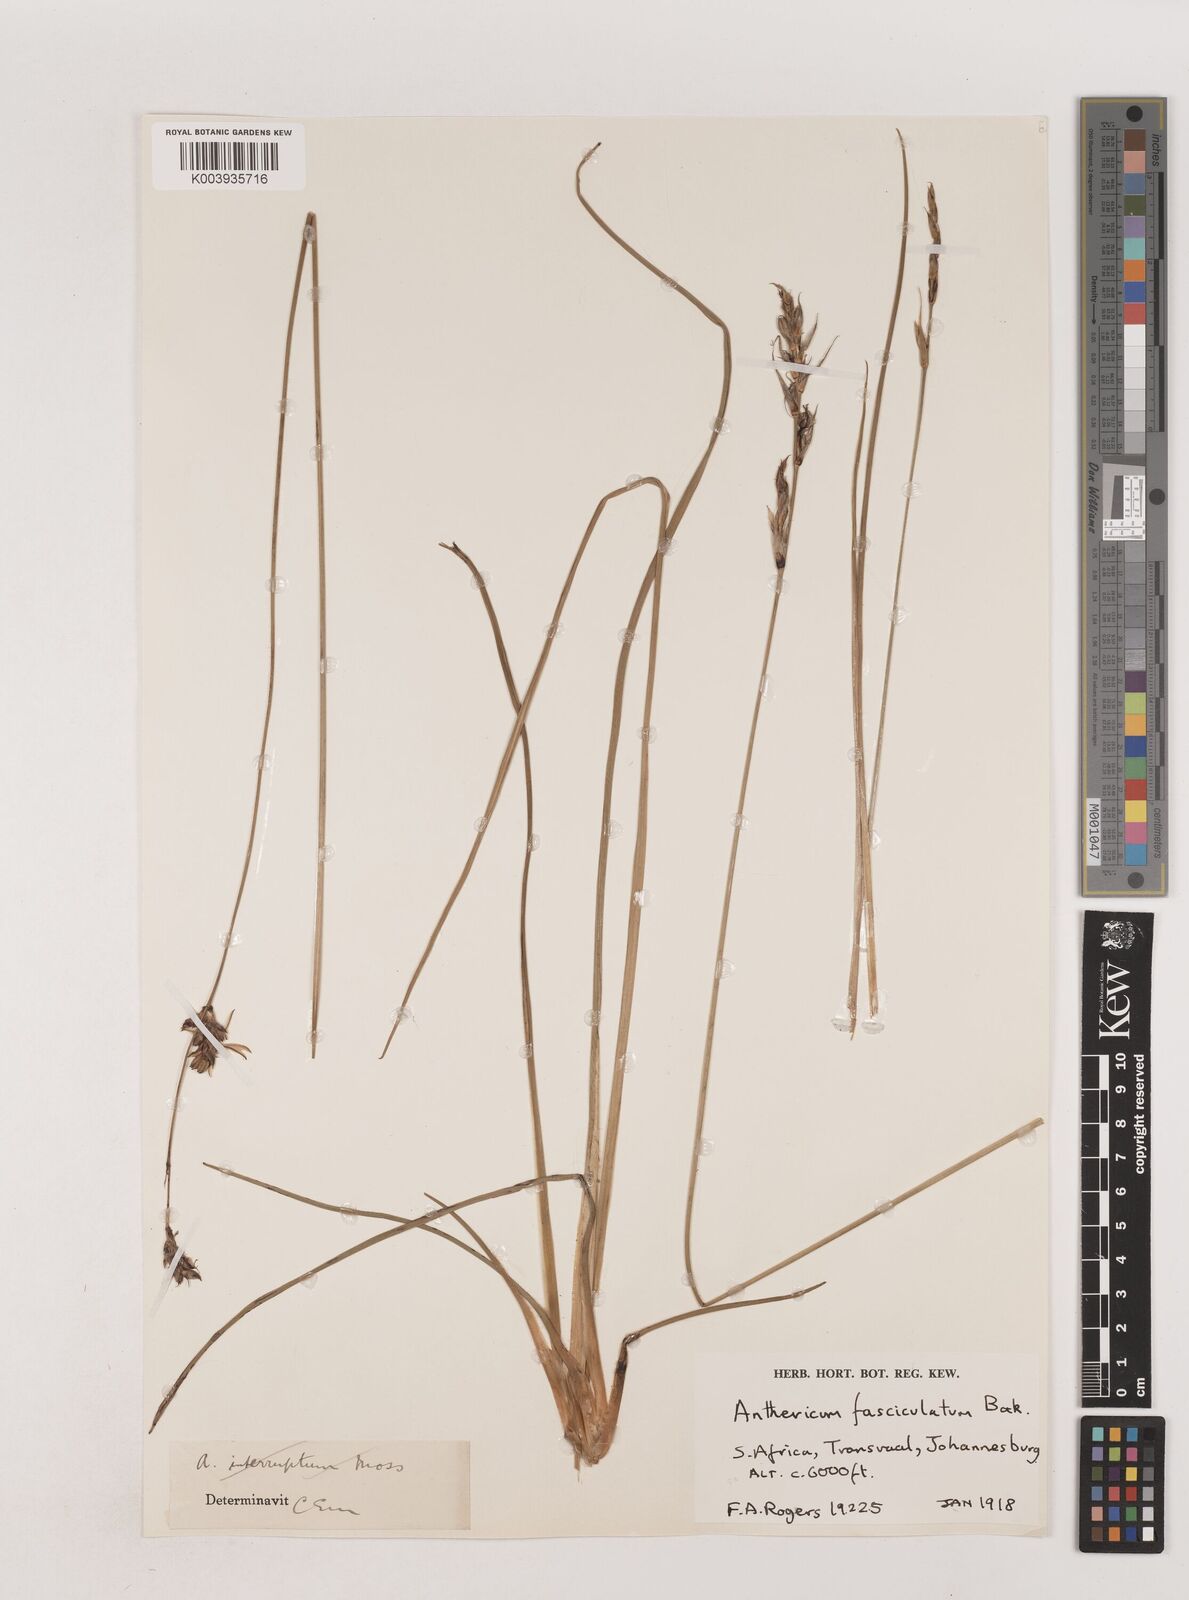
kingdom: Plantae
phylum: Tracheophyta
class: Liliopsida
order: Asparagales
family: Asparagaceae
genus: Chlorophytum
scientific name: Chlorophytum fasciculatum
